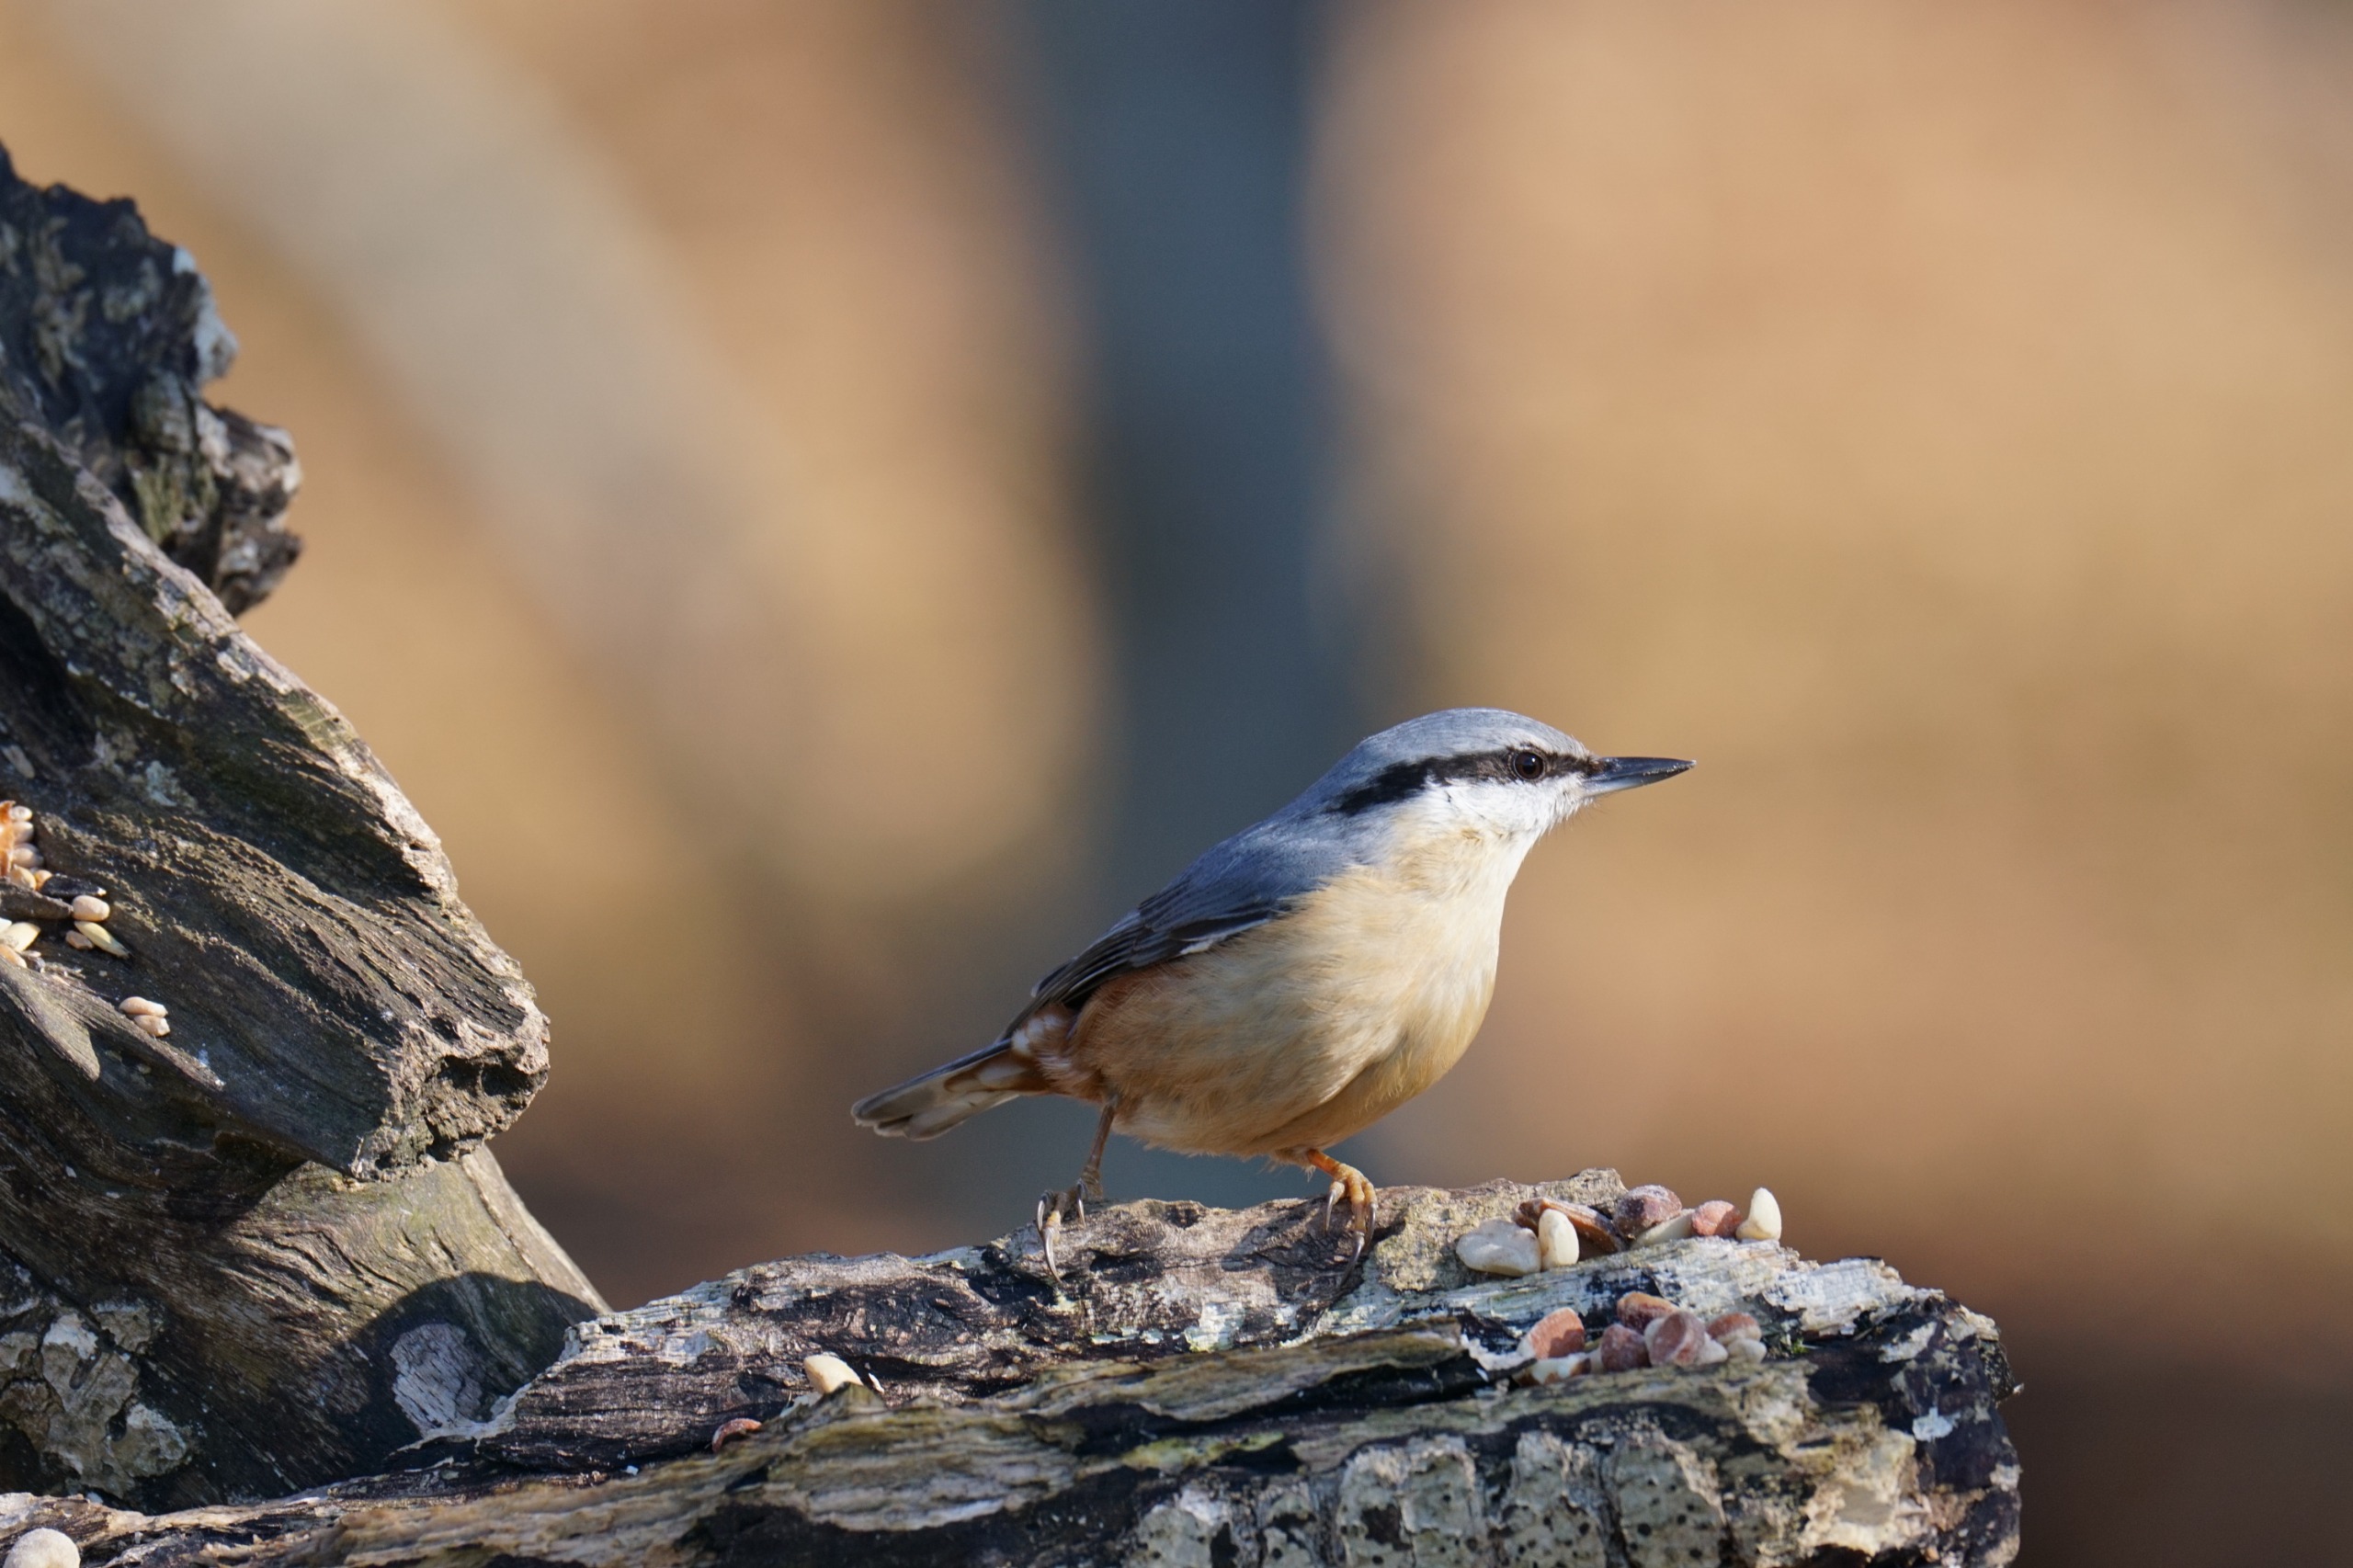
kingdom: Animalia
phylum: Chordata
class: Aves
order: Passeriformes
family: Sittidae
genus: Sitta
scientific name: Sitta europaea
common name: Spætmejse
